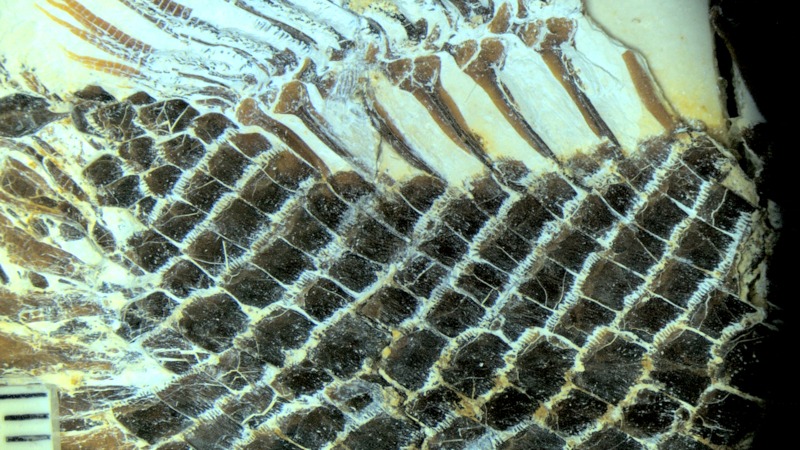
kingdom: Animalia
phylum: Chordata
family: Macrosemiidae
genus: Palaeomacrosemius
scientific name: Palaeomacrosemius thiollieri
